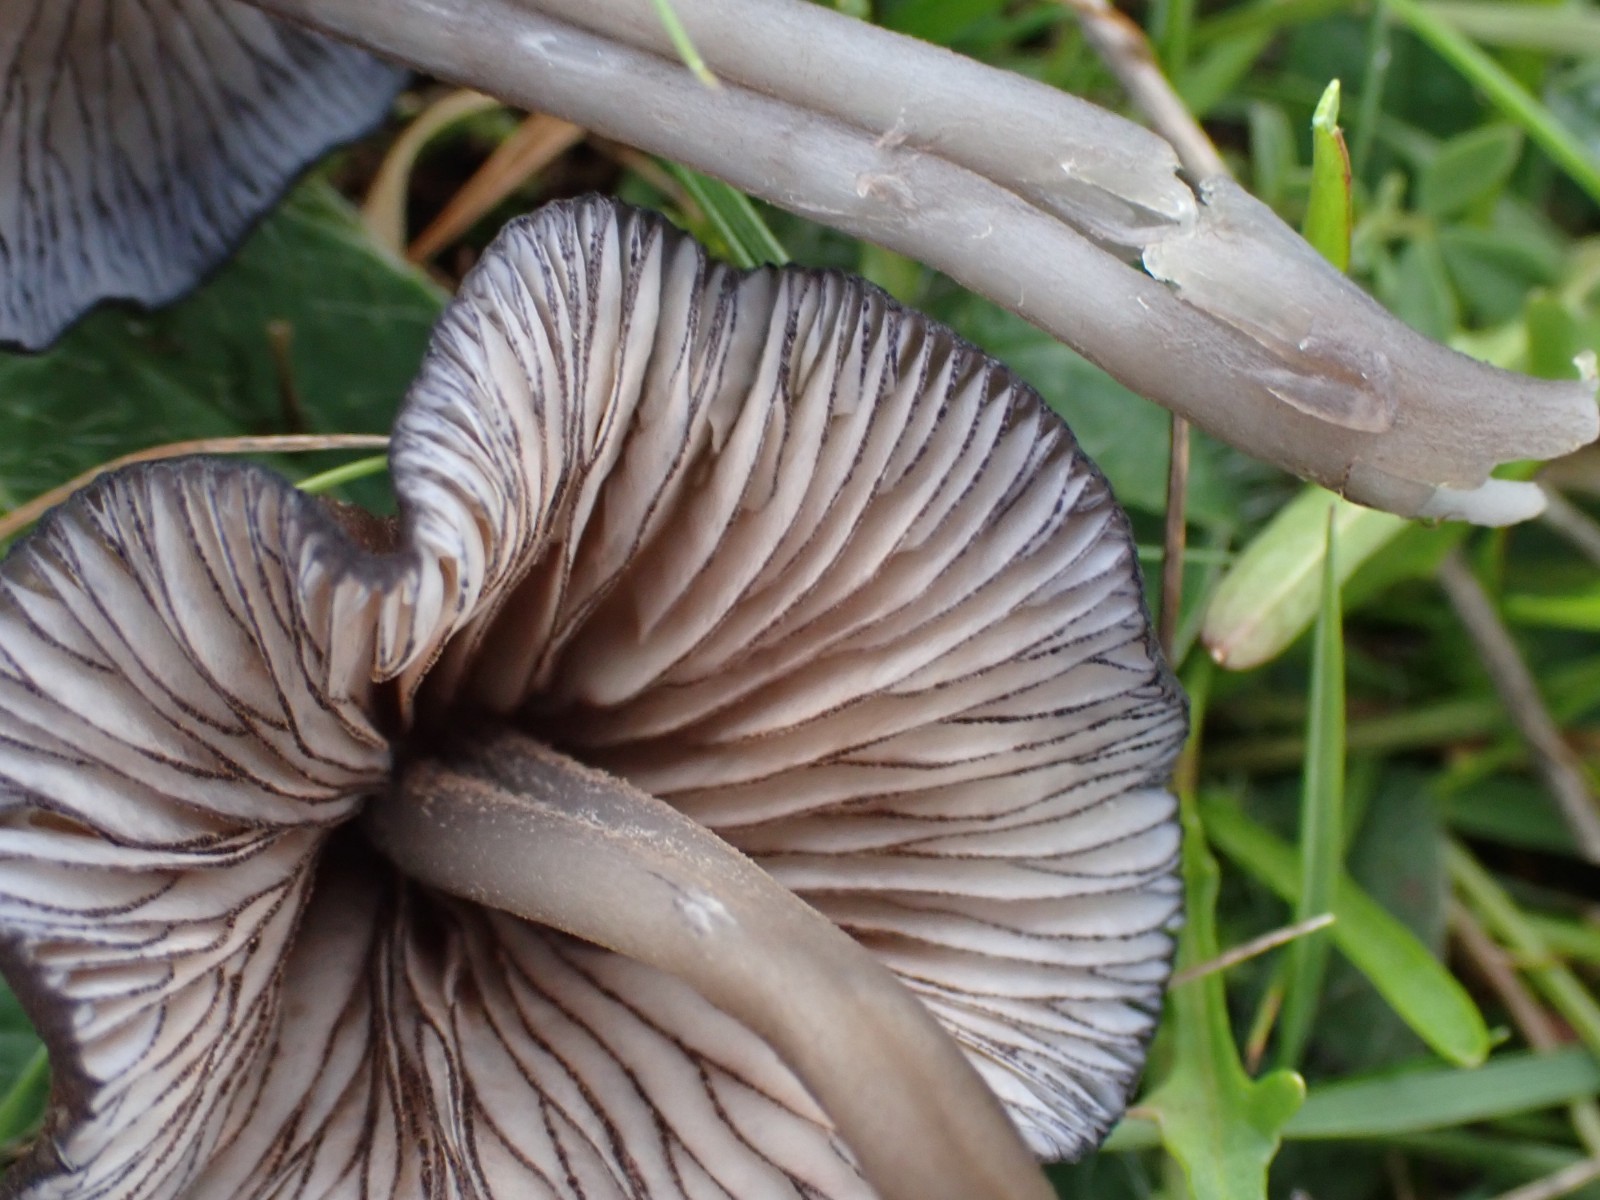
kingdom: Fungi
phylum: Basidiomycota
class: Agaricomycetes
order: Agaricales
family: Entolomataceae
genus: Entoloma
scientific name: Entoloma caesiocinctum
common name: Blue-girdled pinkgill
